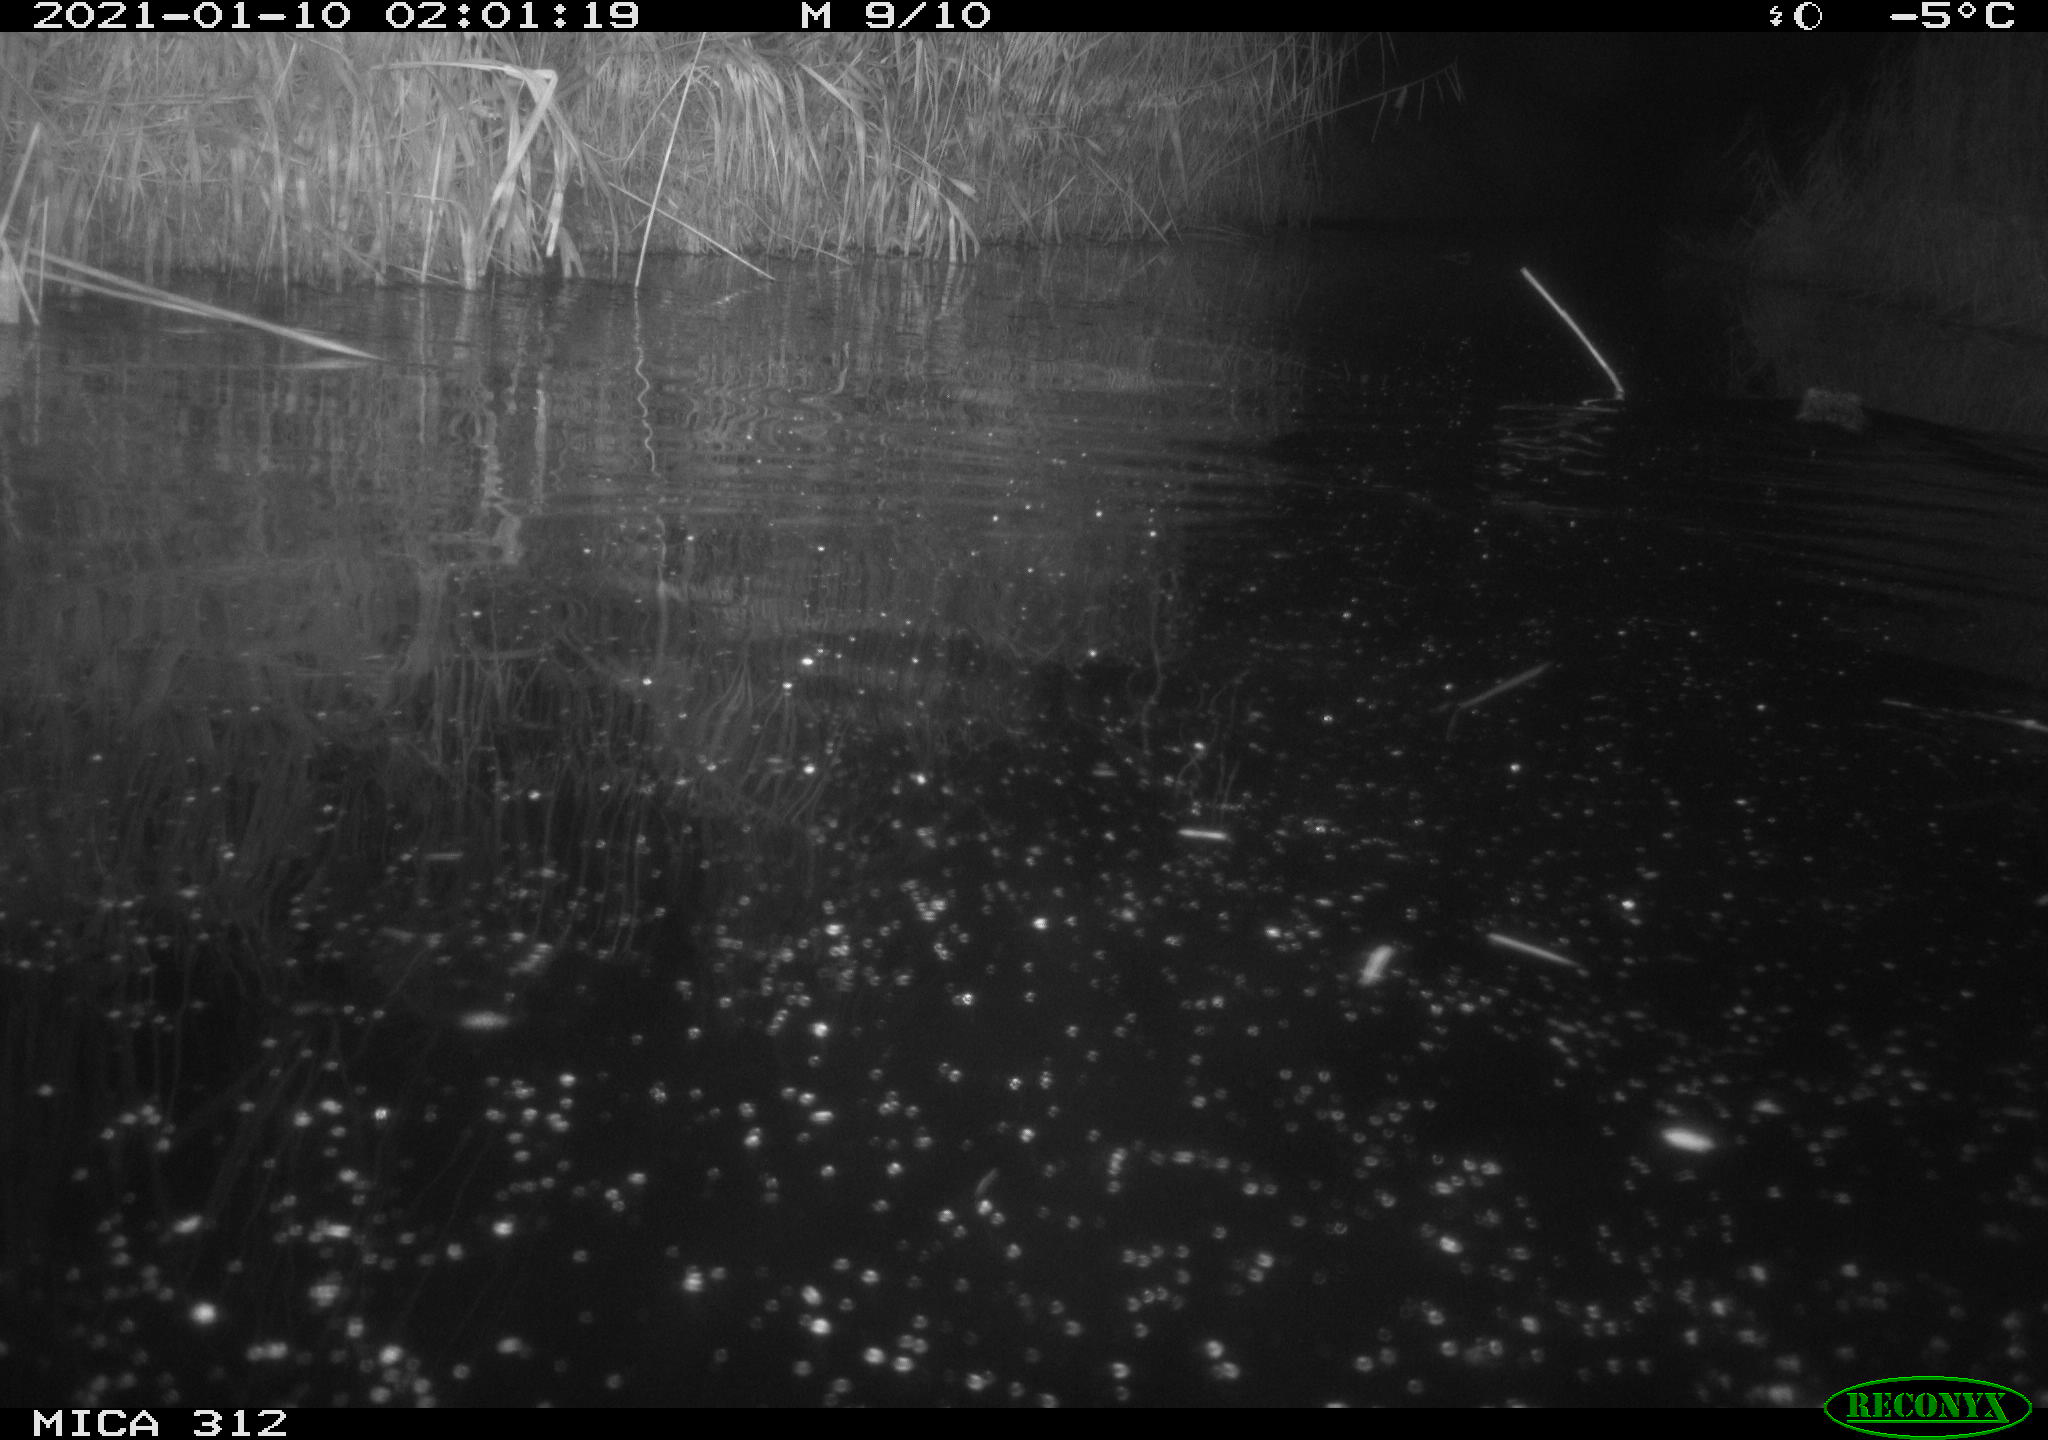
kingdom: Animalia
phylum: Chordata
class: Mammalia
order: Rodentia
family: Cricetidae
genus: Ondatra
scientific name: Ondatra zibethicus
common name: Muskrat
